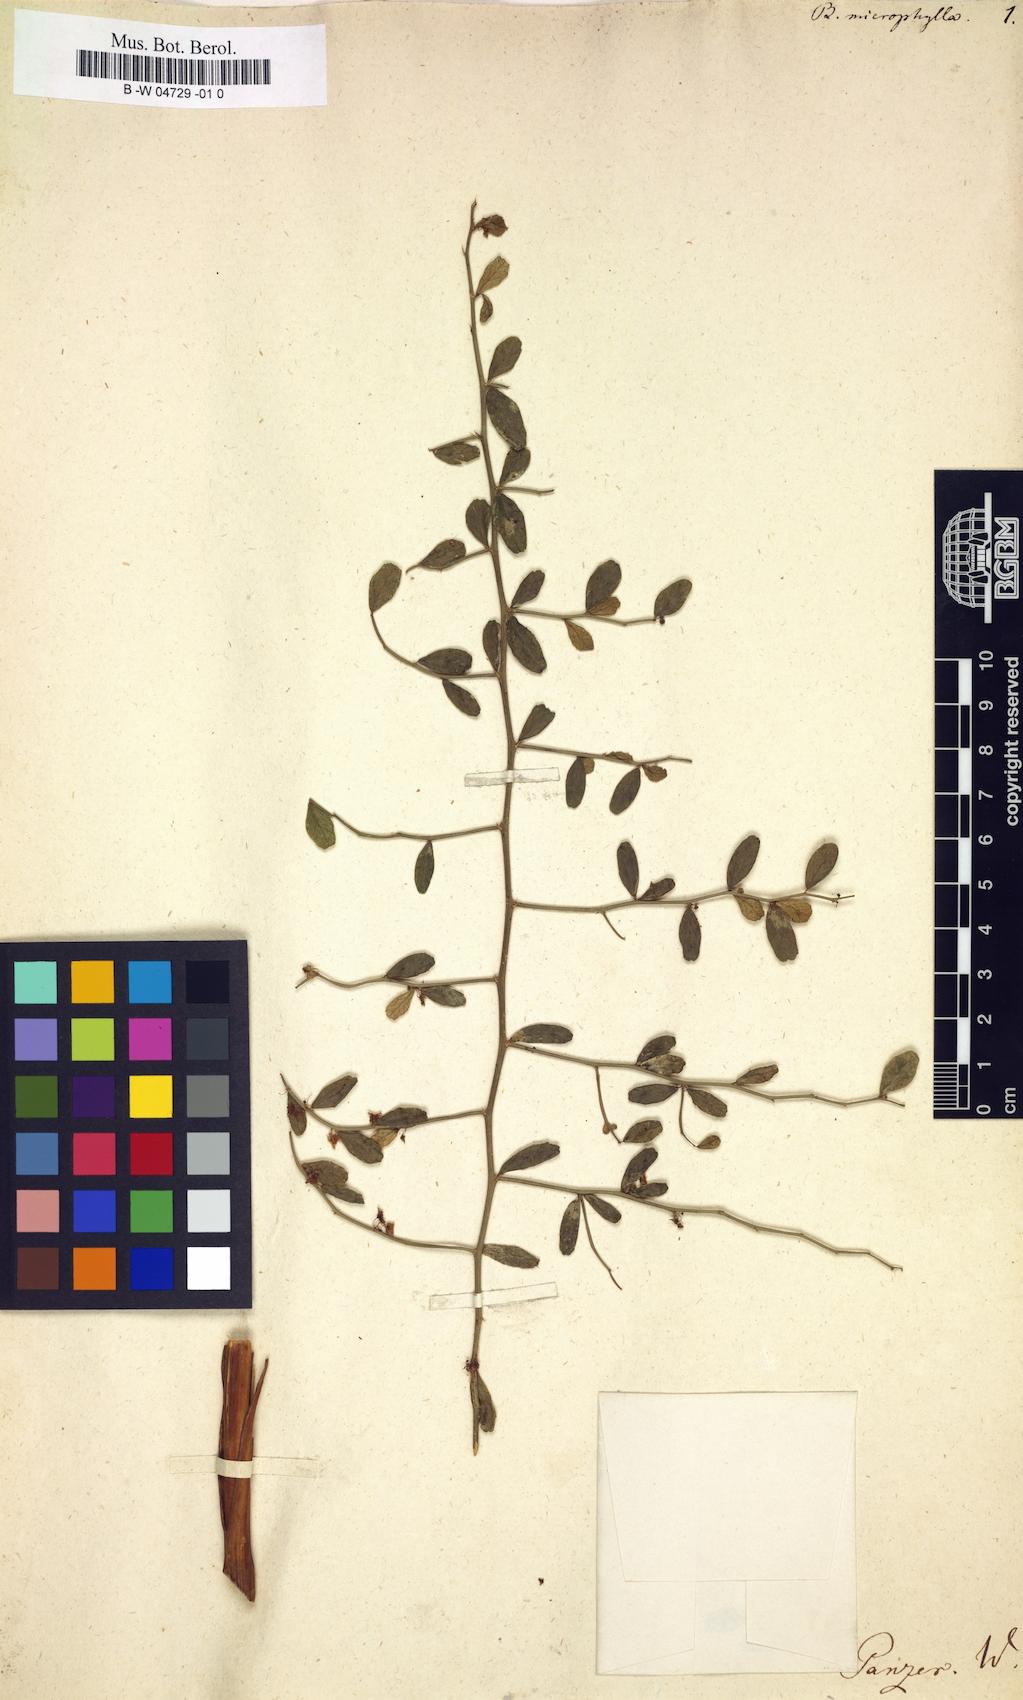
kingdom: Plantae
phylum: Tracheophyta
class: Magnoliopsida
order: Malvales
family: Malvaceae
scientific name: Malvaceae
